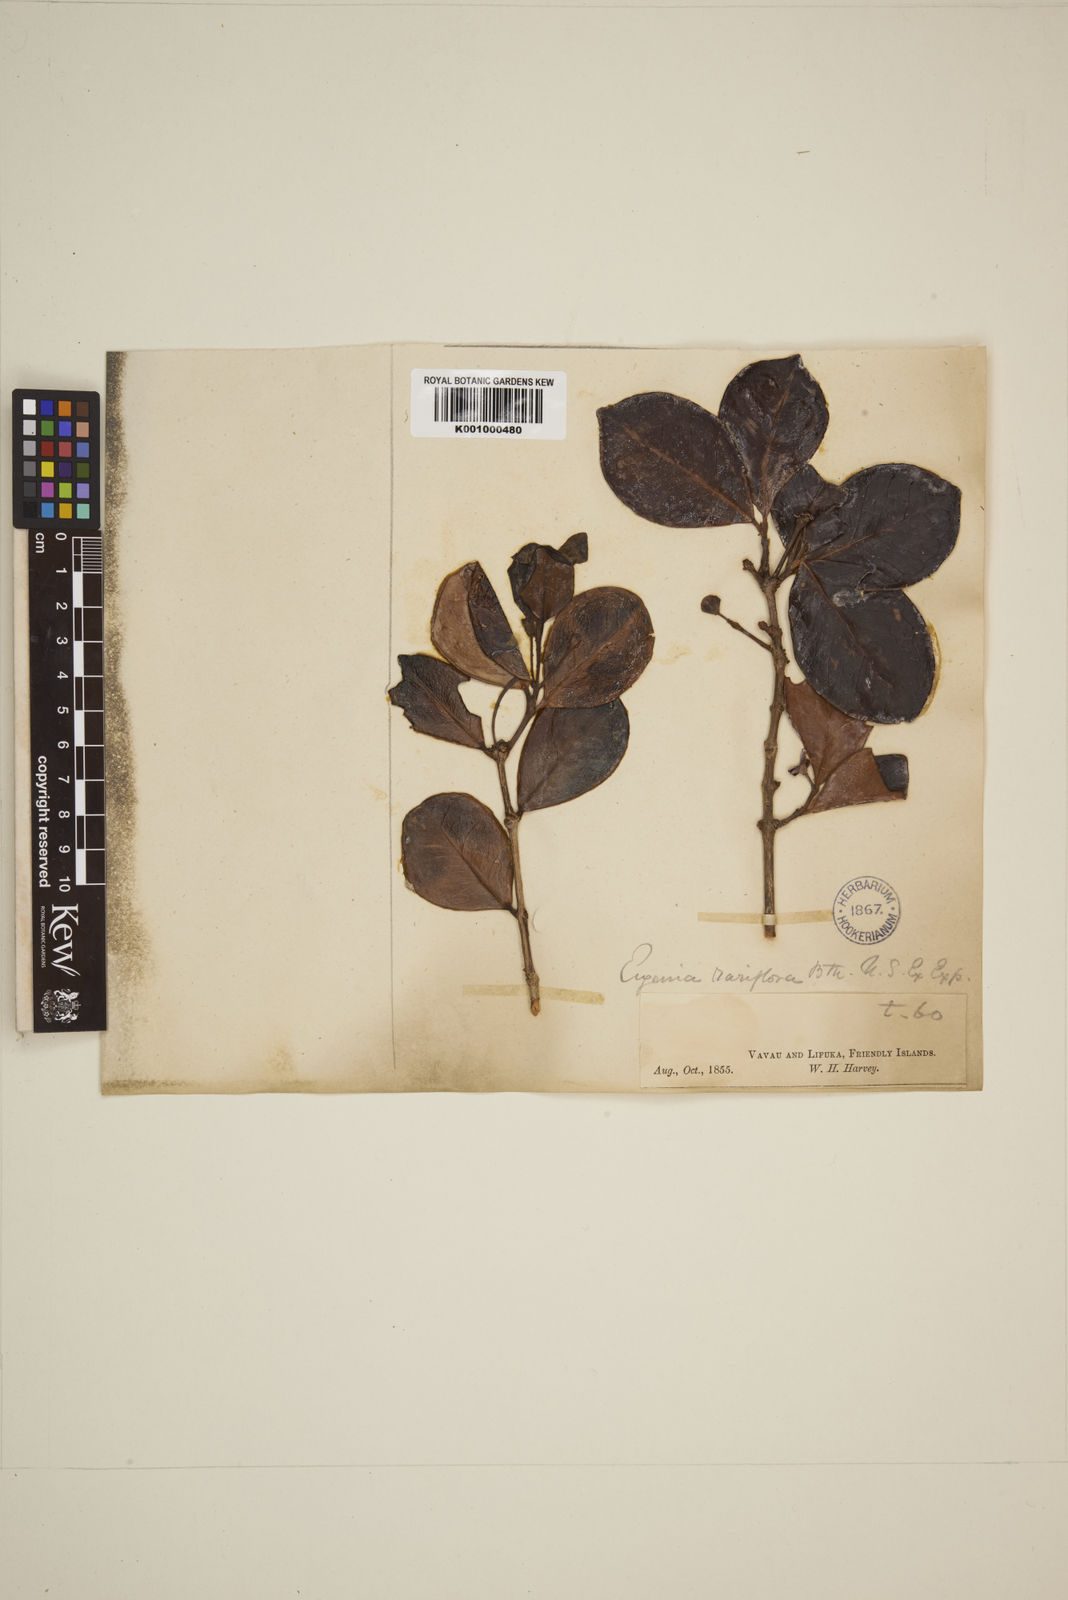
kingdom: Plantae
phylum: Tracheophyta
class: Magnoliopsida
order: Myrtales
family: Myrtaceae
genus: Eugenia
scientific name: Eugenia reinwardtiana
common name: Cedar bay-cherry
